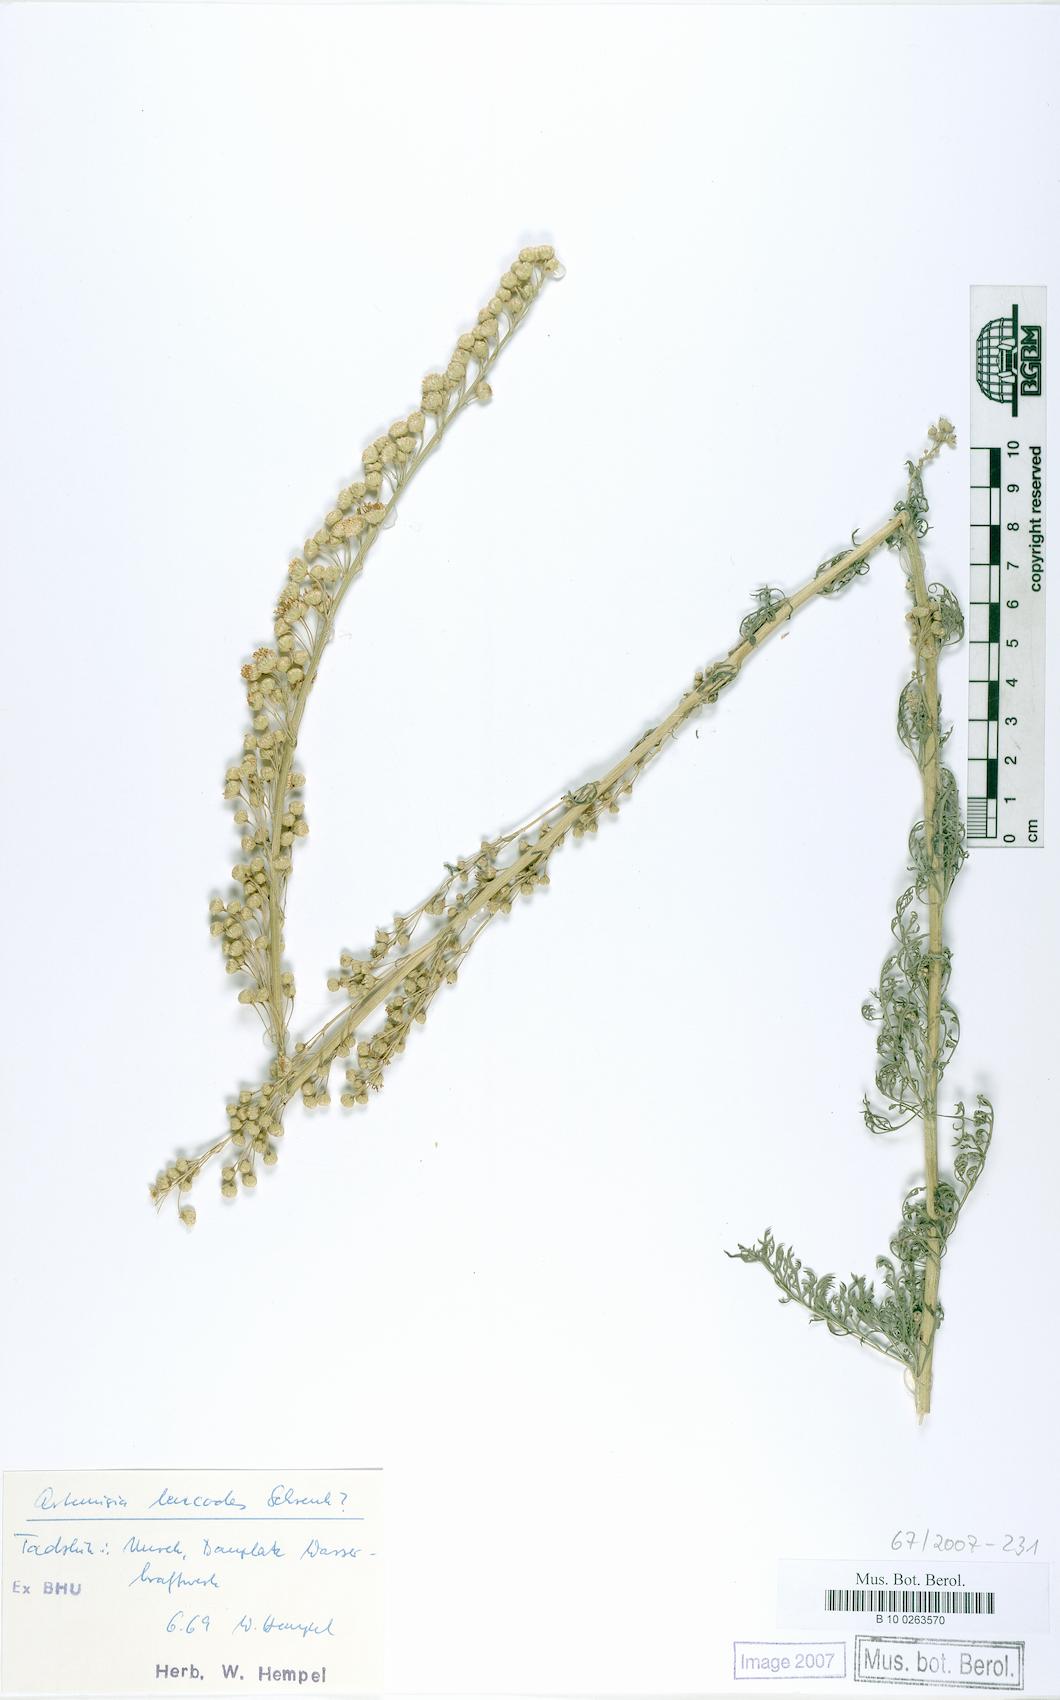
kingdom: Plantae
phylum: Tracheophyta
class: Magnoliopsida
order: Asterales
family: Asteraceae
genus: Artemisia
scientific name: Artemisia leucodes
